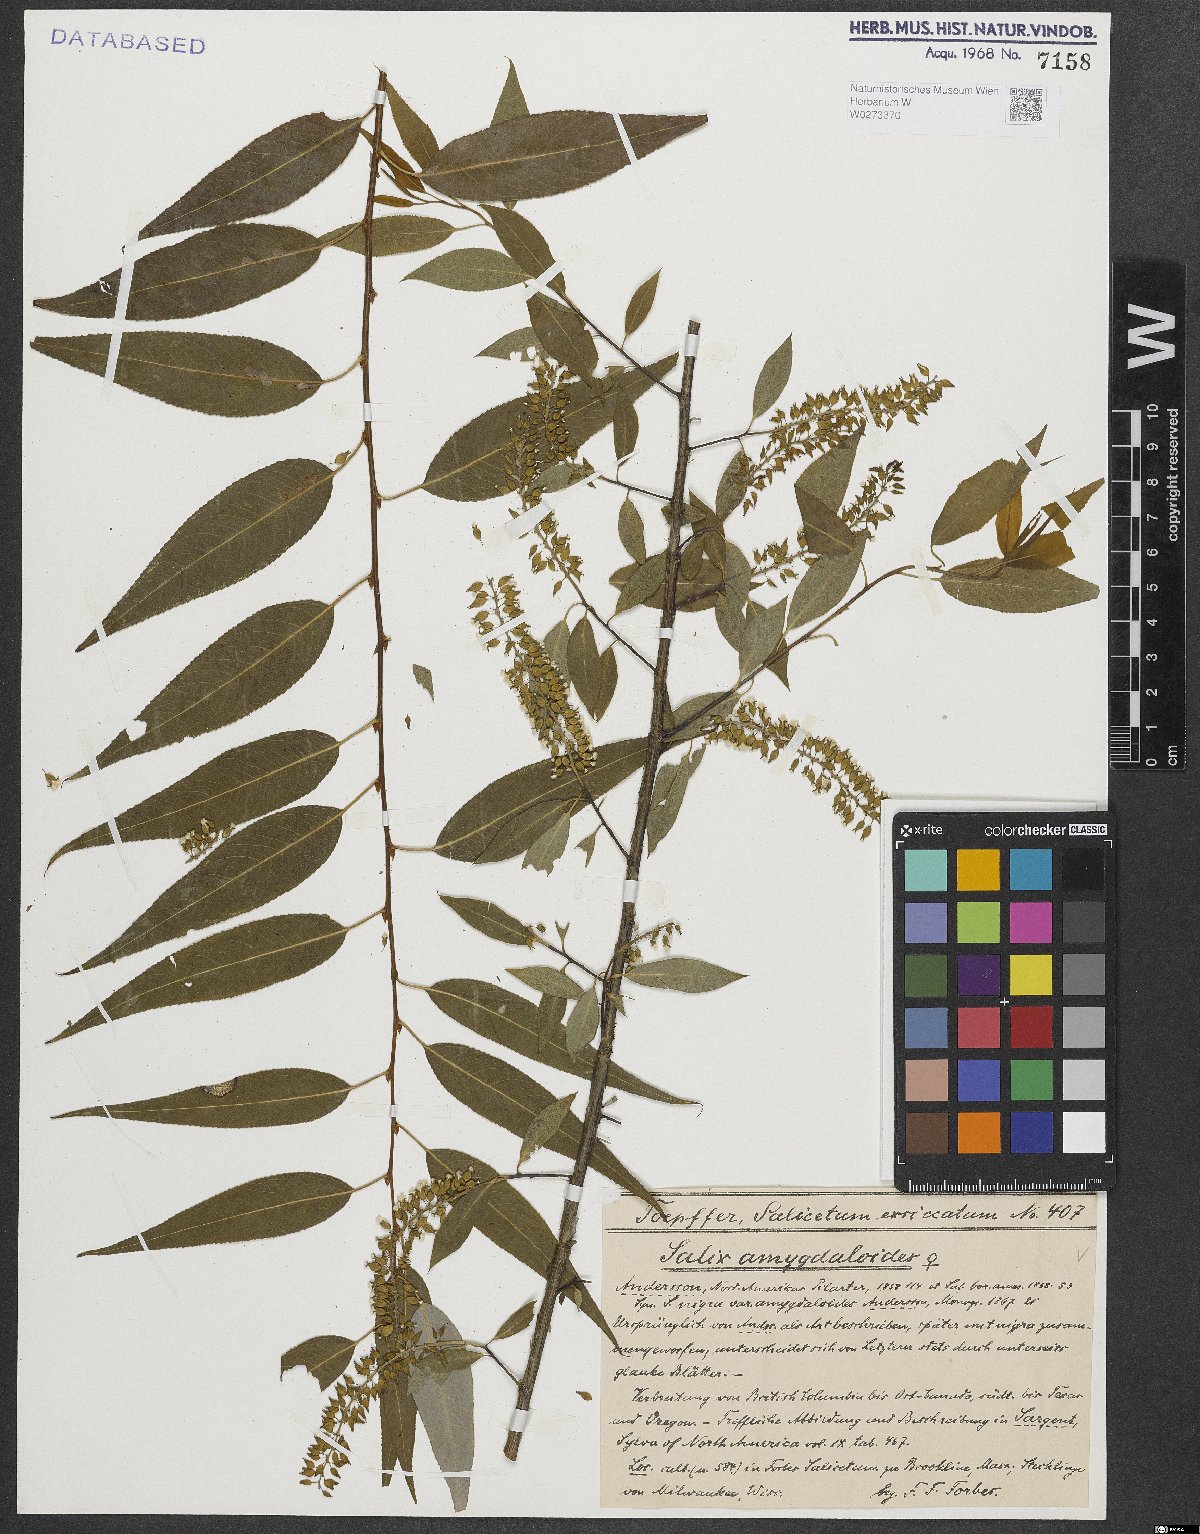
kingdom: Plantae
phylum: Tracheophyta
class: Magnoliopsida
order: Malpighiales
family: Salicaceae
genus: Salix
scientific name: Salix amygdaloides
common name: Peach leaf willow
